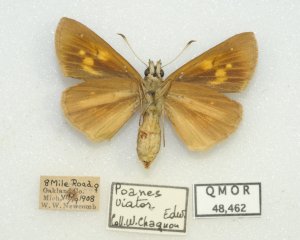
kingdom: Animalia
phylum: Arthropoda
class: Insecta
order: Lepidoptera
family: Hesperiidae
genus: Poanes
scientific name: Poanes viator
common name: Broad-winged Skipper
